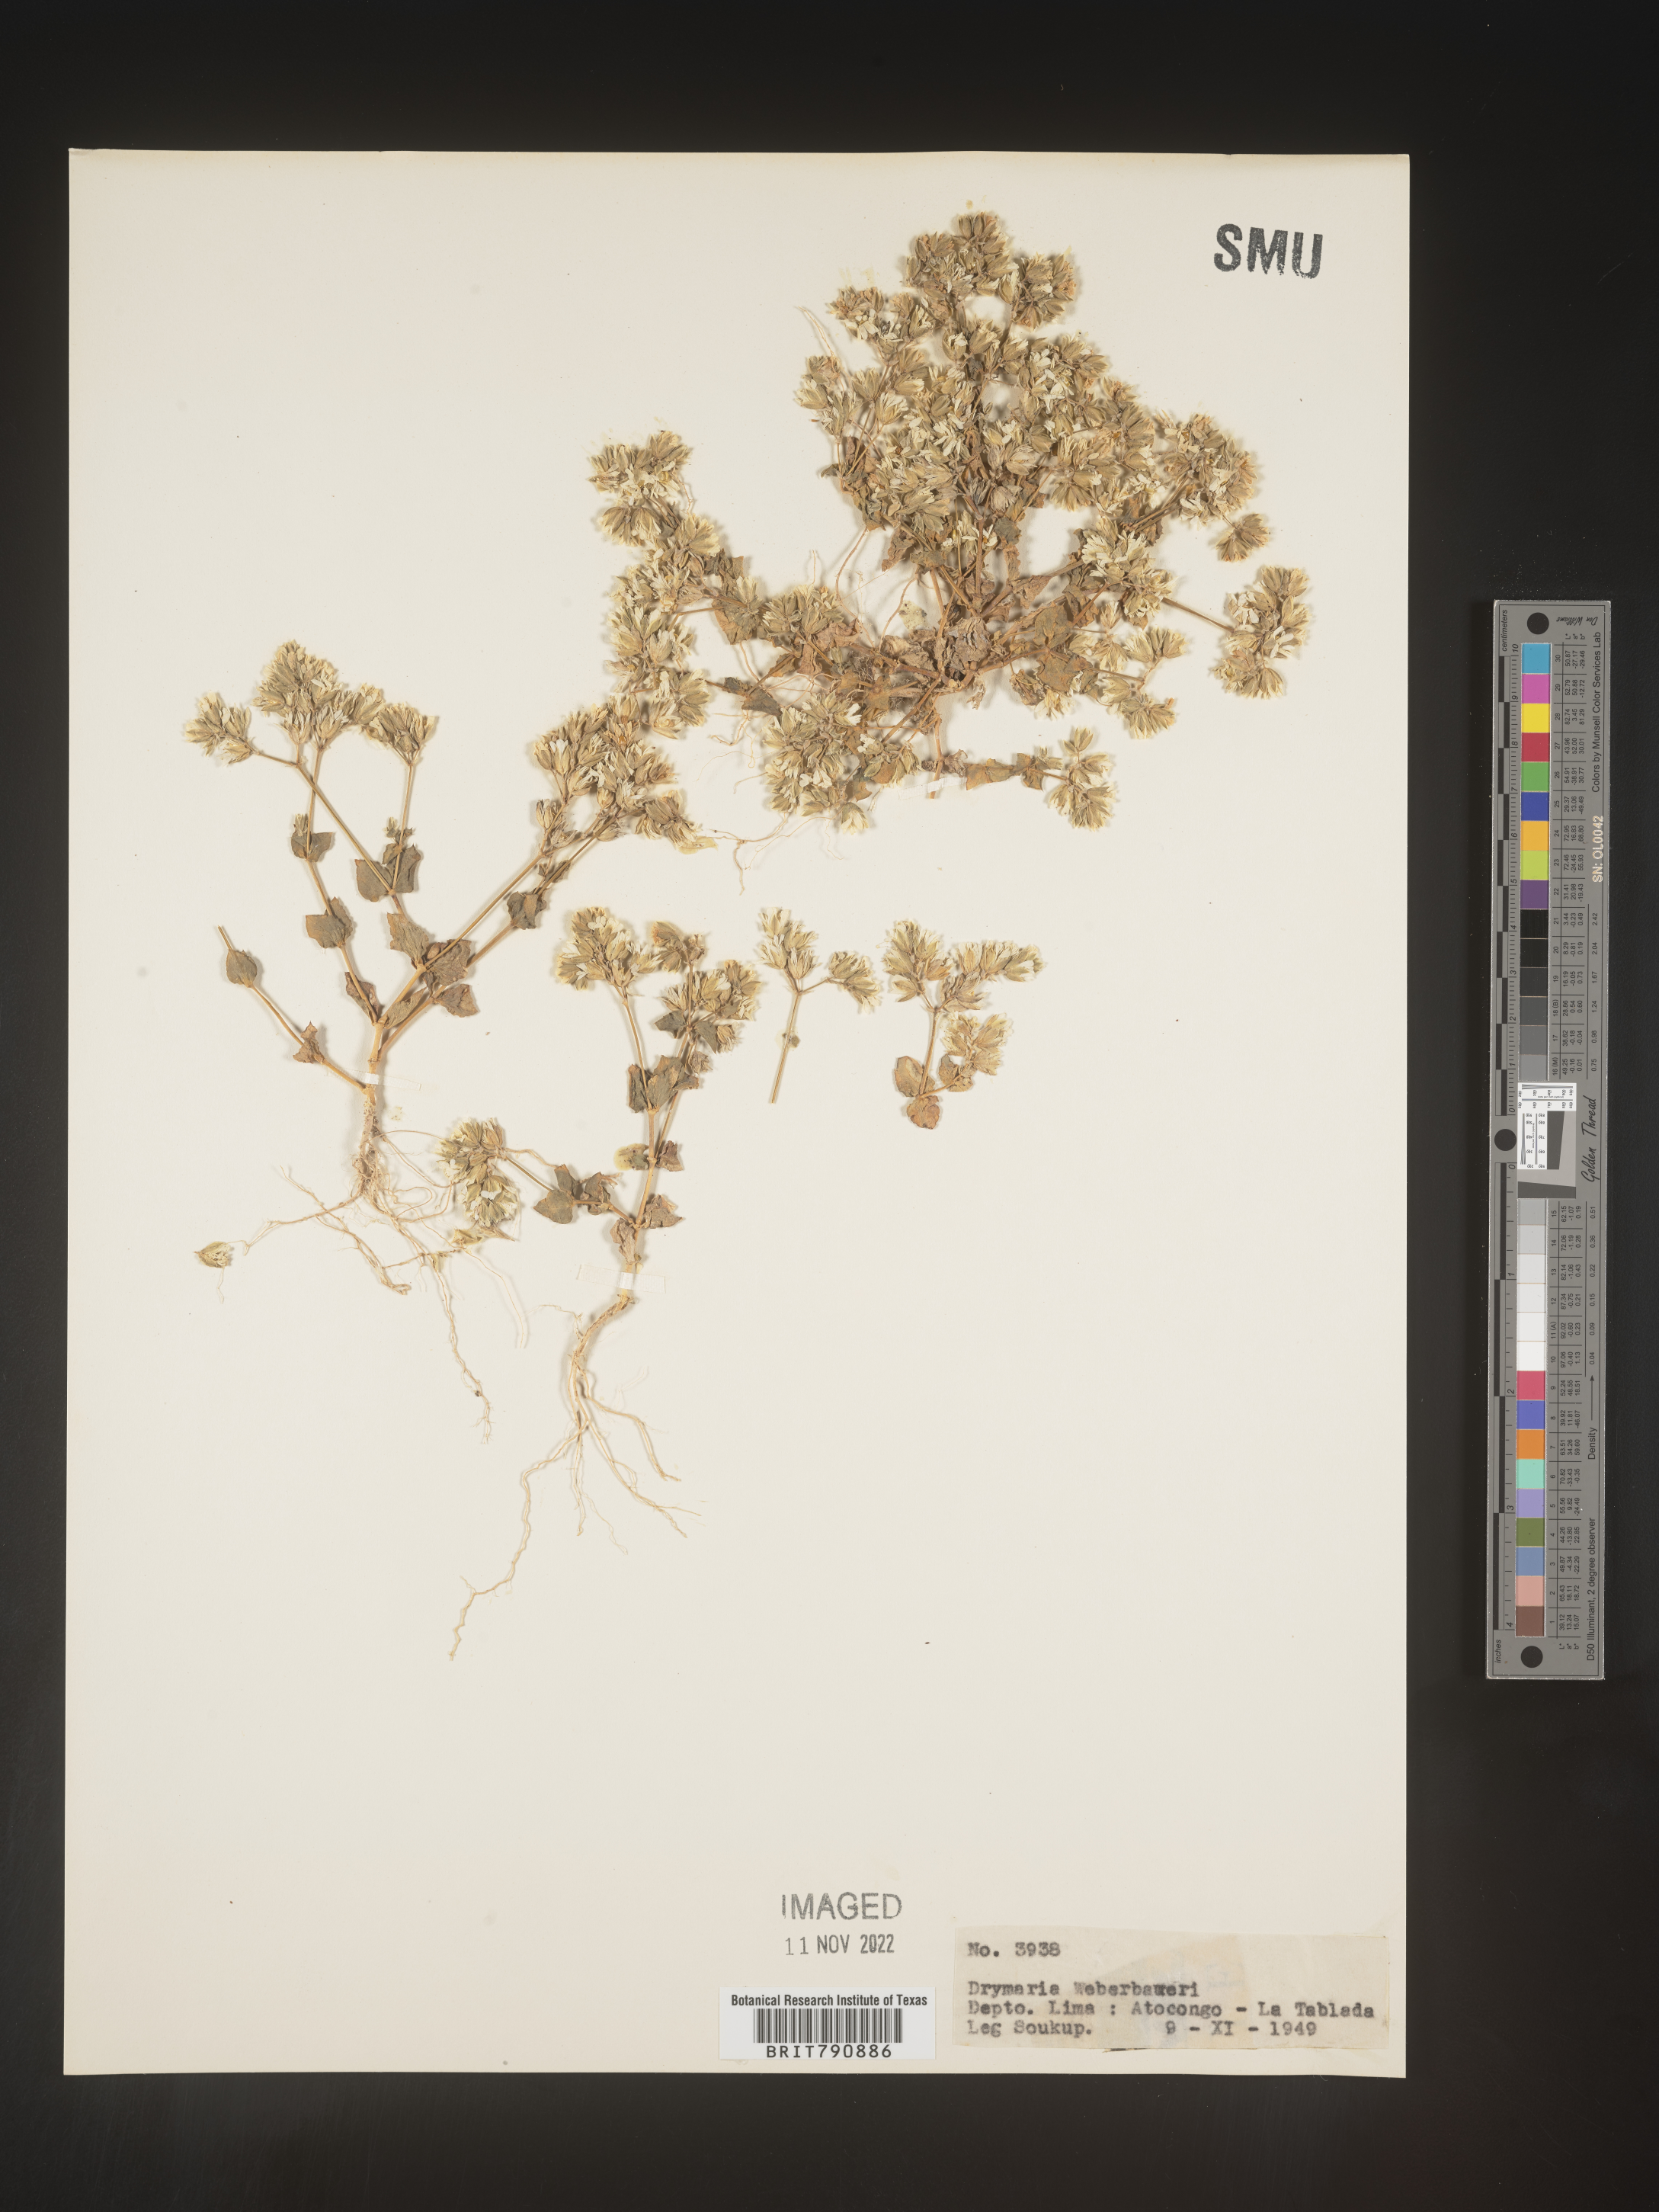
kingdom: Plantae
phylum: Tracheophyta
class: Magnoliopsida
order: Caryophyllales
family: Caryophyllaceae
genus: Drymaria
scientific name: Drymaria
